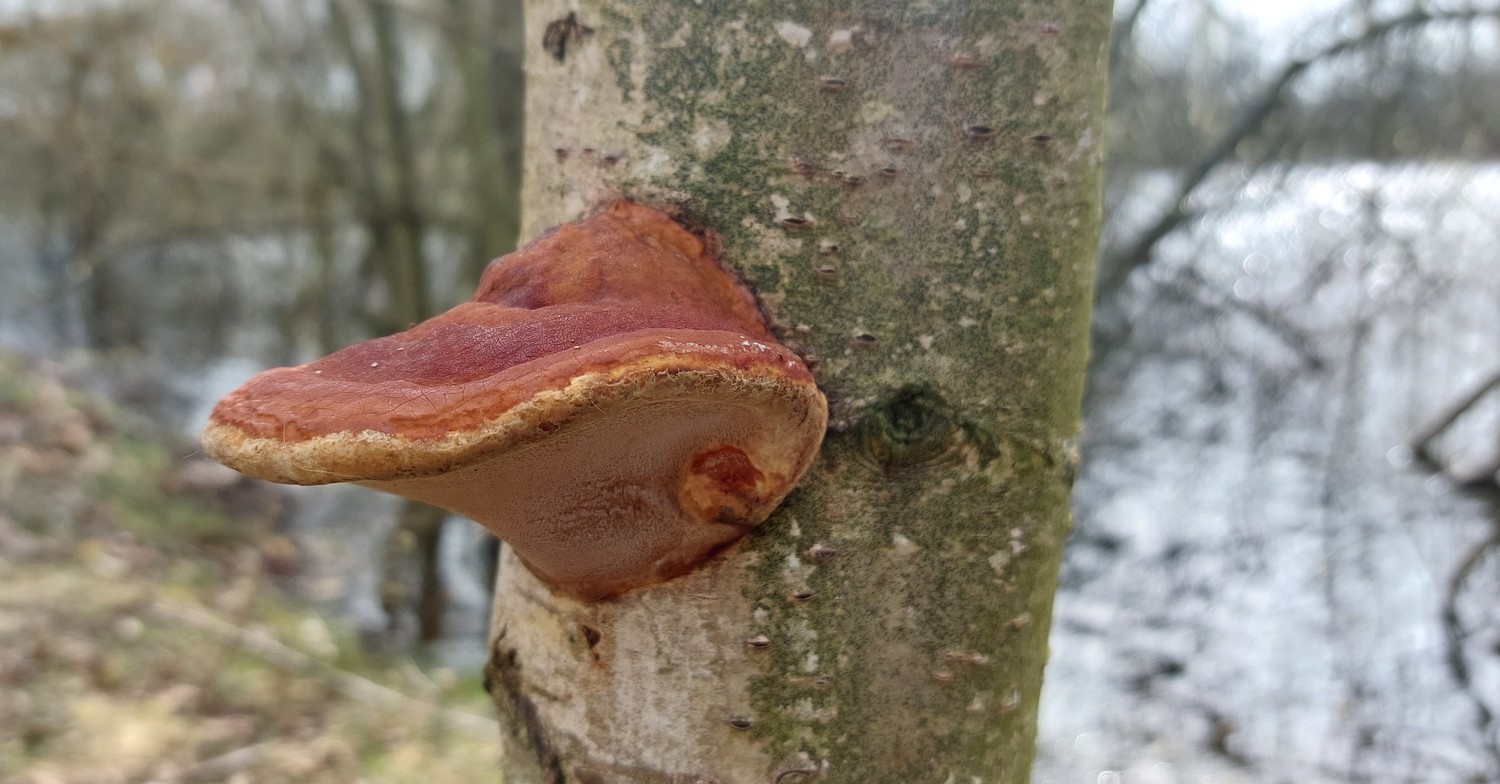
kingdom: Fungi
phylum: Basidiomycota
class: Agaricomycetes
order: Polyporales
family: Phanerochaetaceae
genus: Hapalopilus
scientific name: Hapalopilus rutilans
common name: rødlig okkerporesvamp
